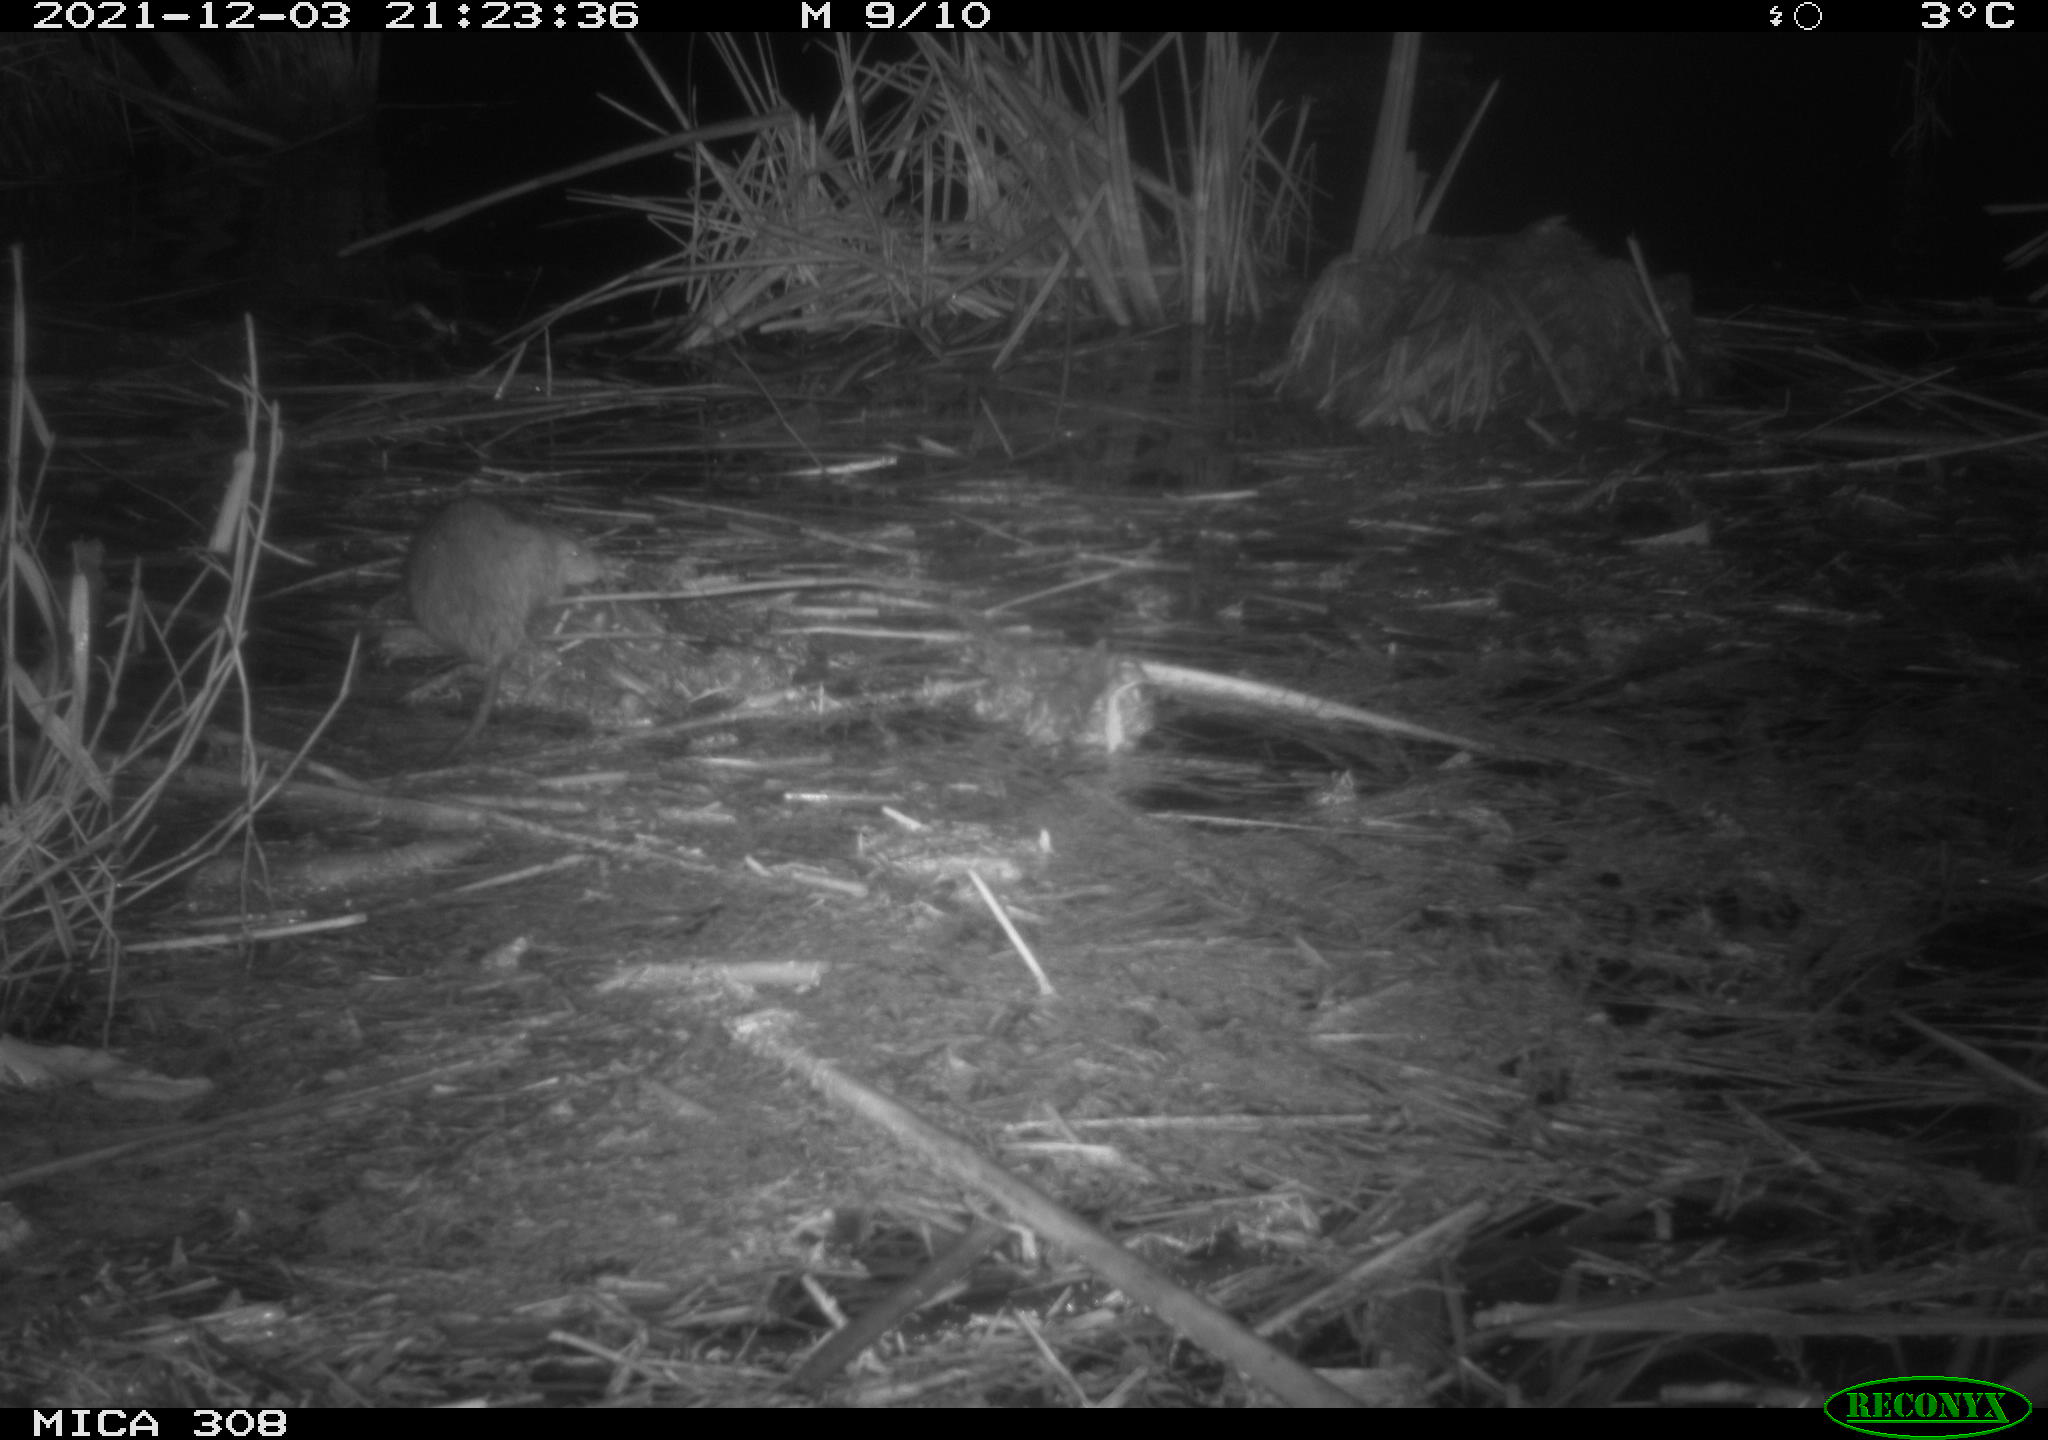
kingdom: Animalia
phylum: Chordata
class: Mammalia
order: Rodentia
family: Muridae
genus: Rattus
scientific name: Rattus norvegicus
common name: Brown rat
